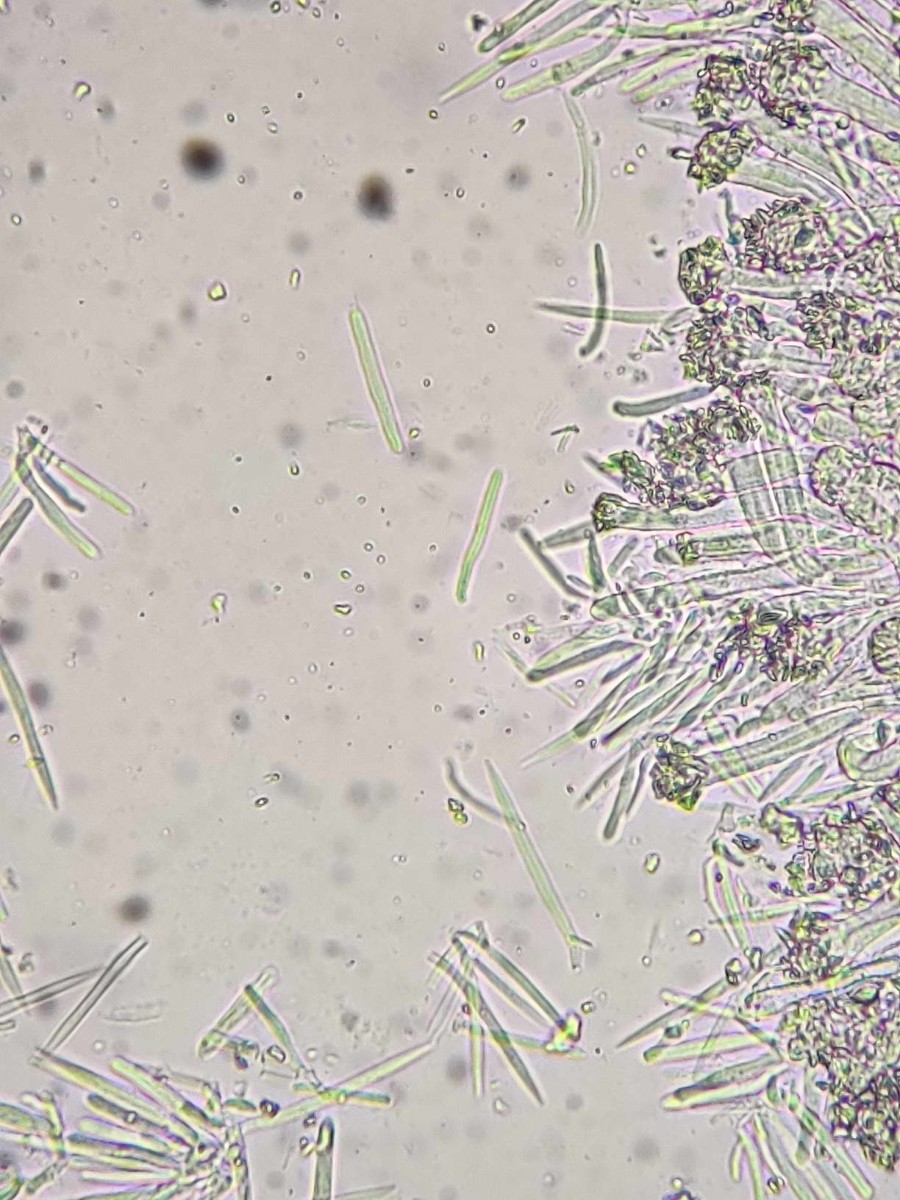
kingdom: Fungi
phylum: Ascomycota
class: Leotiomycetes
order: Helotiales
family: Lachnaceae
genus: Lachnum
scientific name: Lachnum rhytismatis
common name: blad-frynseskive
